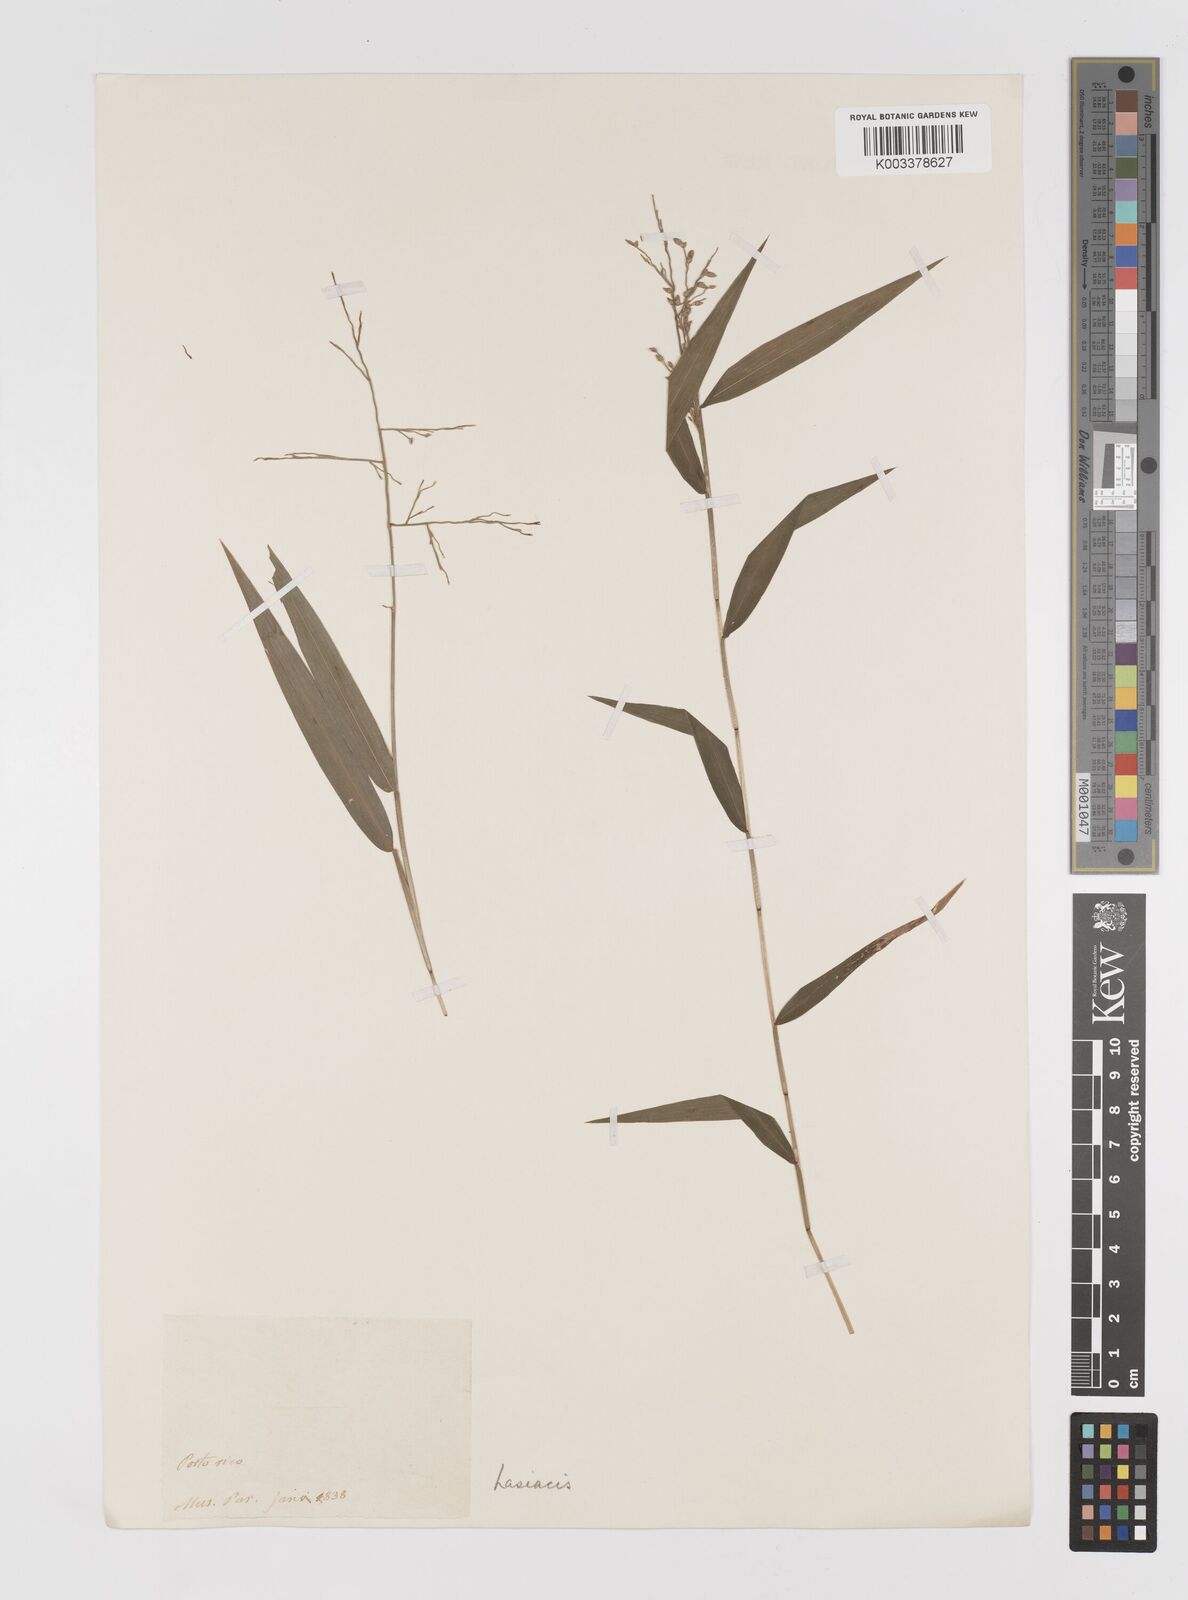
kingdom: Plantae
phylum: Tracheophyta
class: Liliopsida
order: Poales
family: Poaceae
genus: Lasiacis
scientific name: Lasiacis
